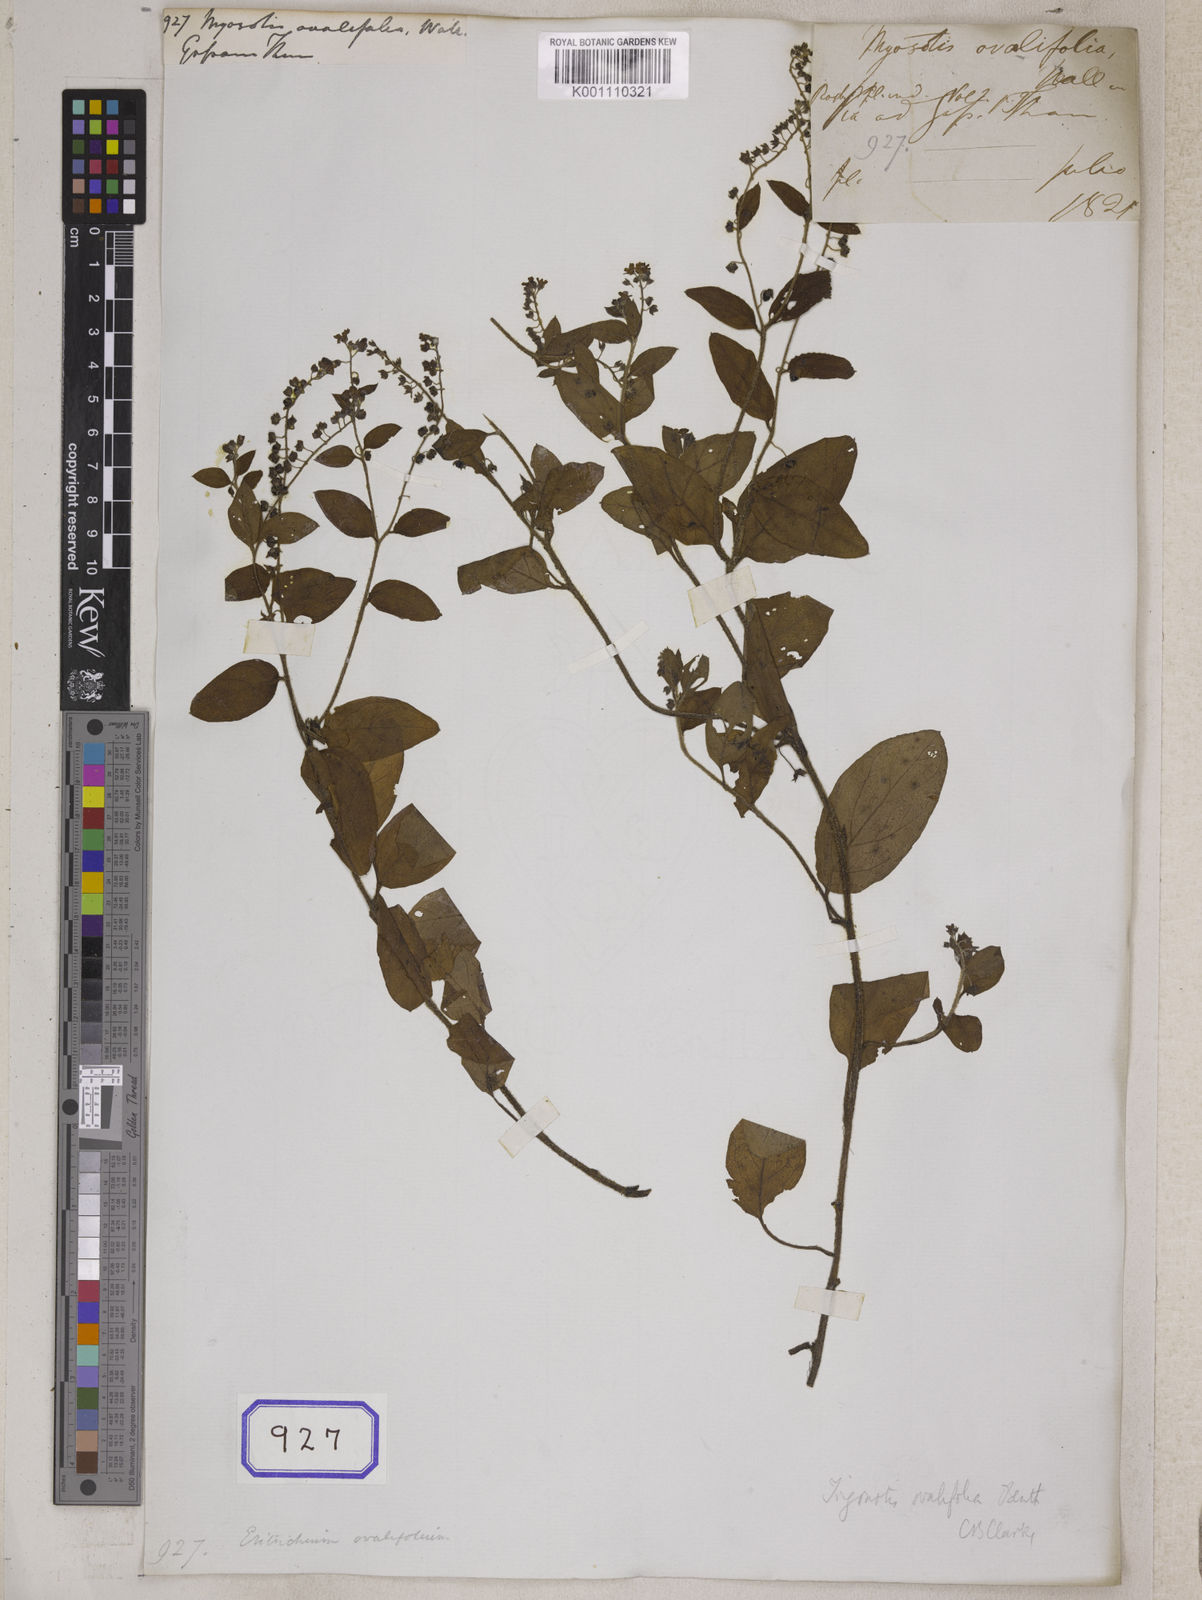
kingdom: Plantae
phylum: Tracheophyta
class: Magnoliopsida
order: Boraginales
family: Boraginaceae
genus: Trigonotis
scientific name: Trigonotis ovalifolia
